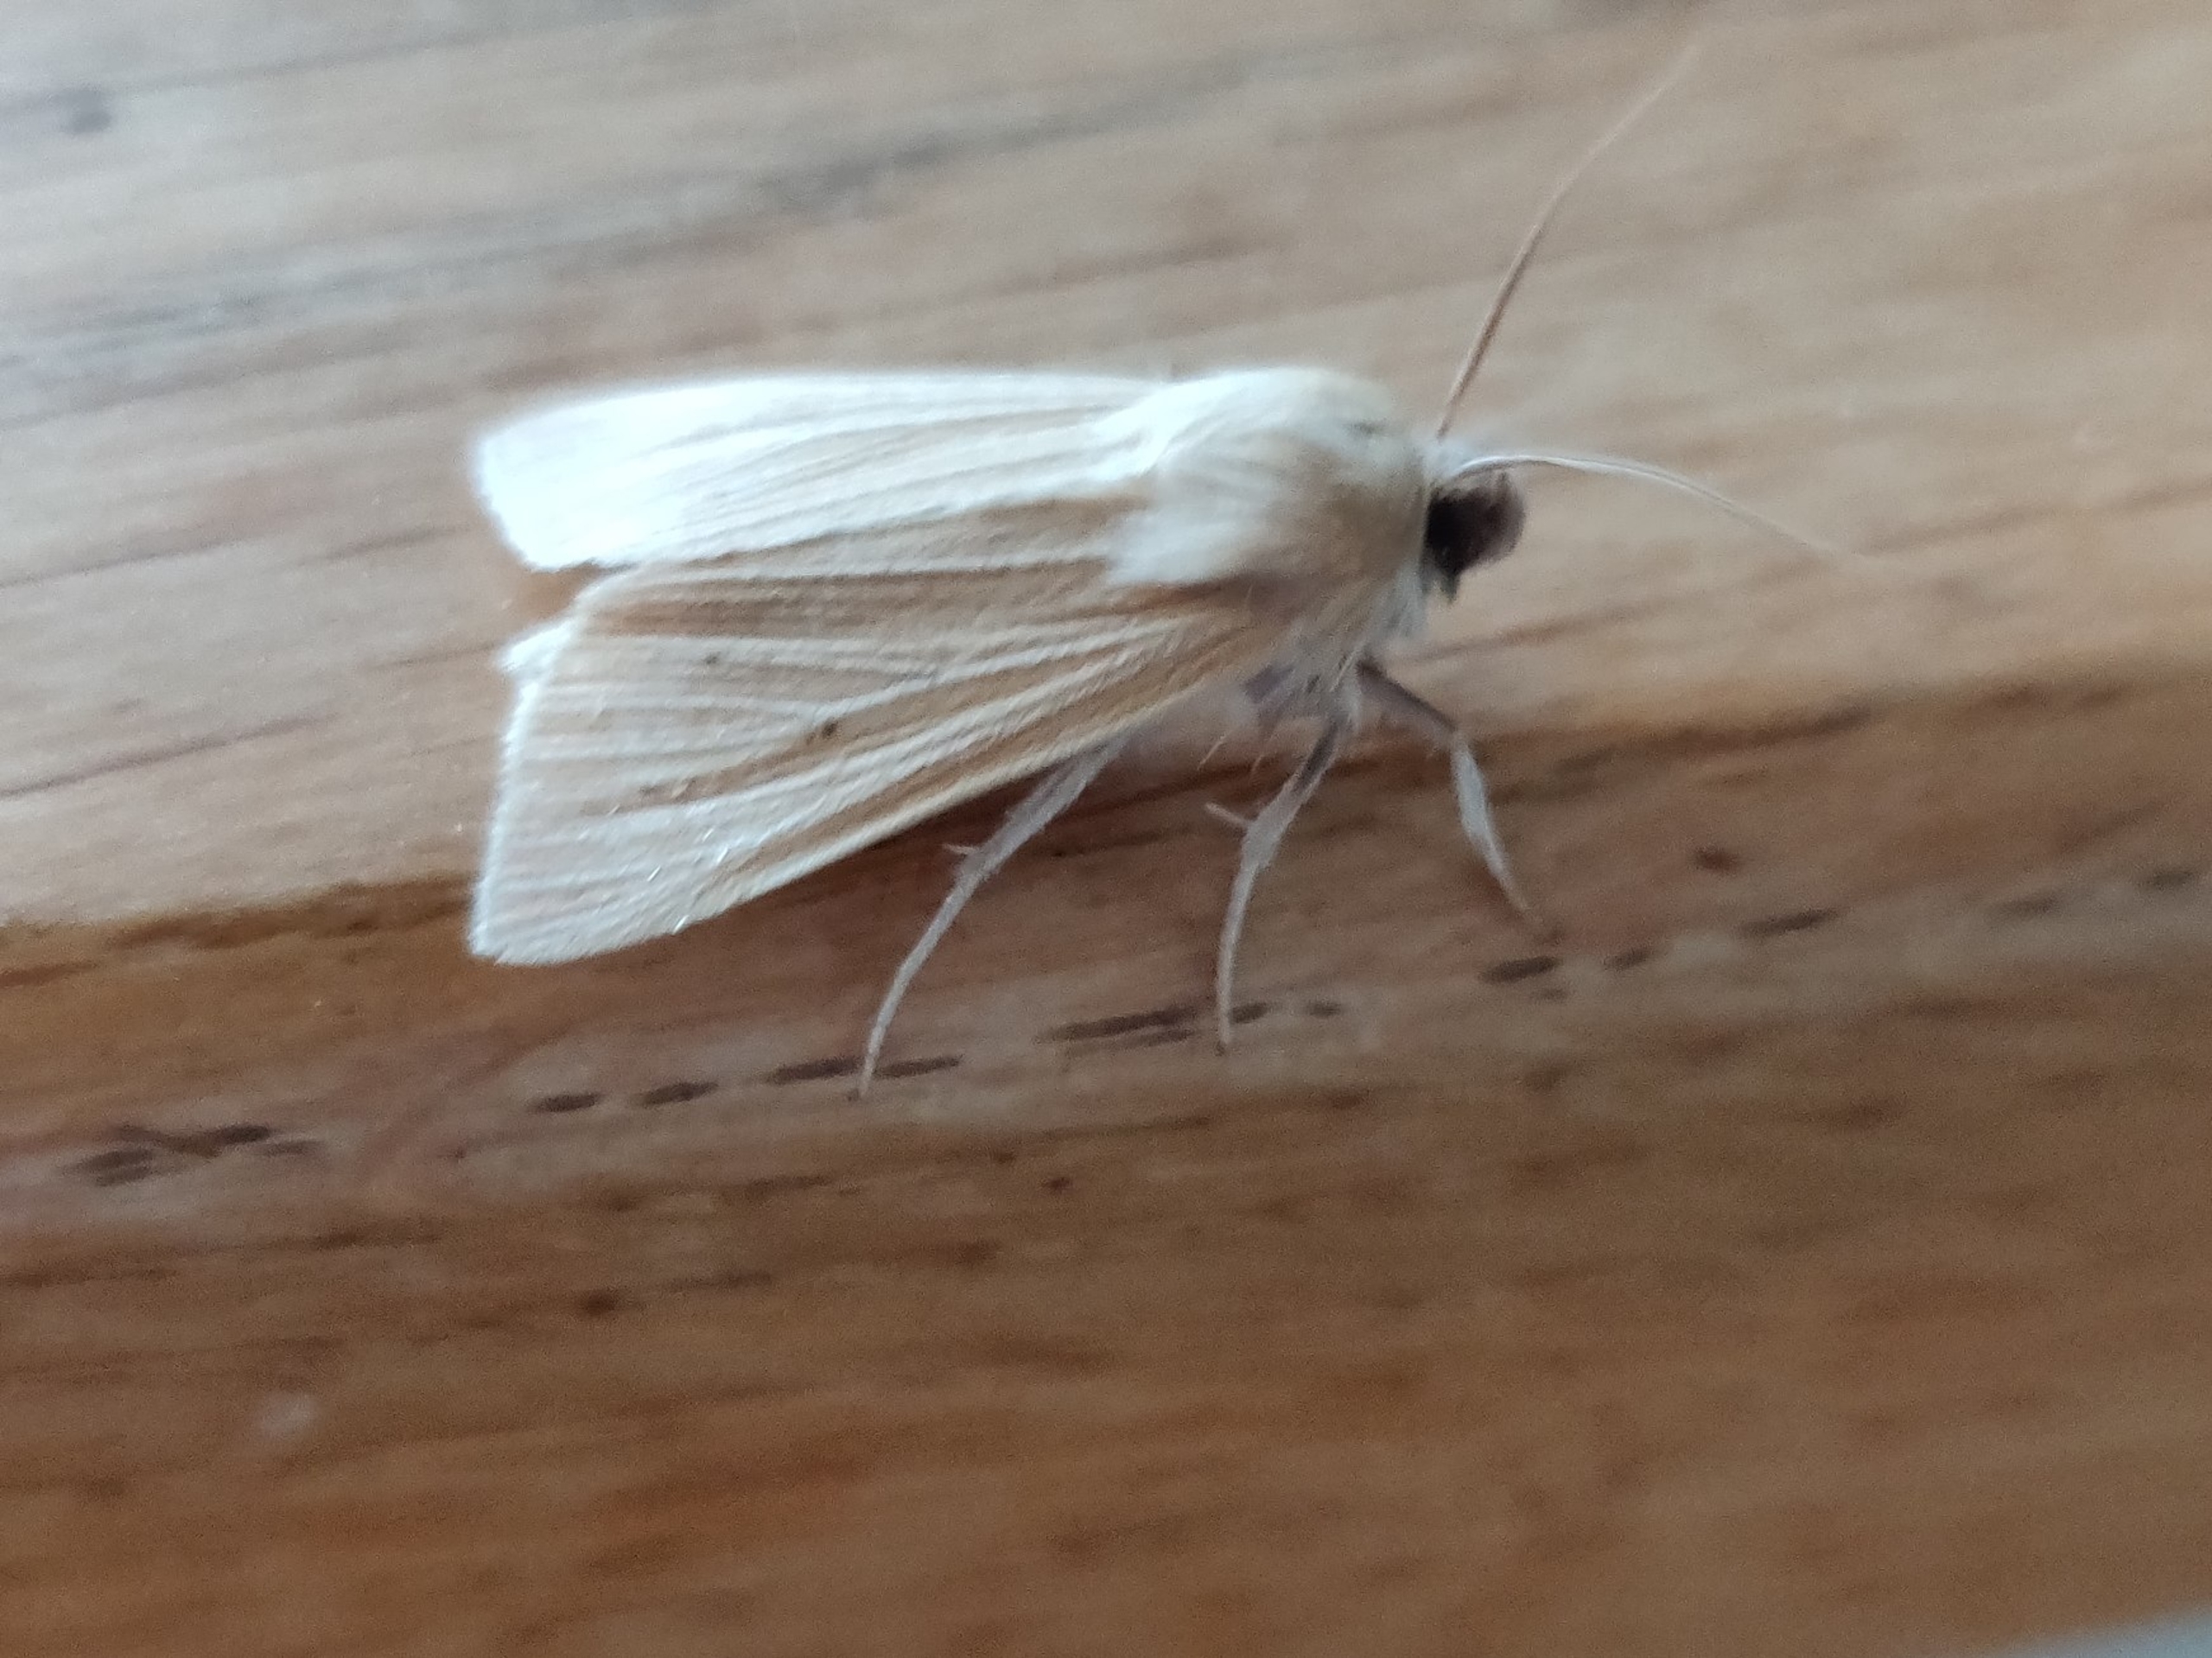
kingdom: Animalia
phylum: Arthropoda
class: Insecta
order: Lepidoptera
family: Noctuidae
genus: Mythimna
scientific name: Mythimna pallens
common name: Halmugle
